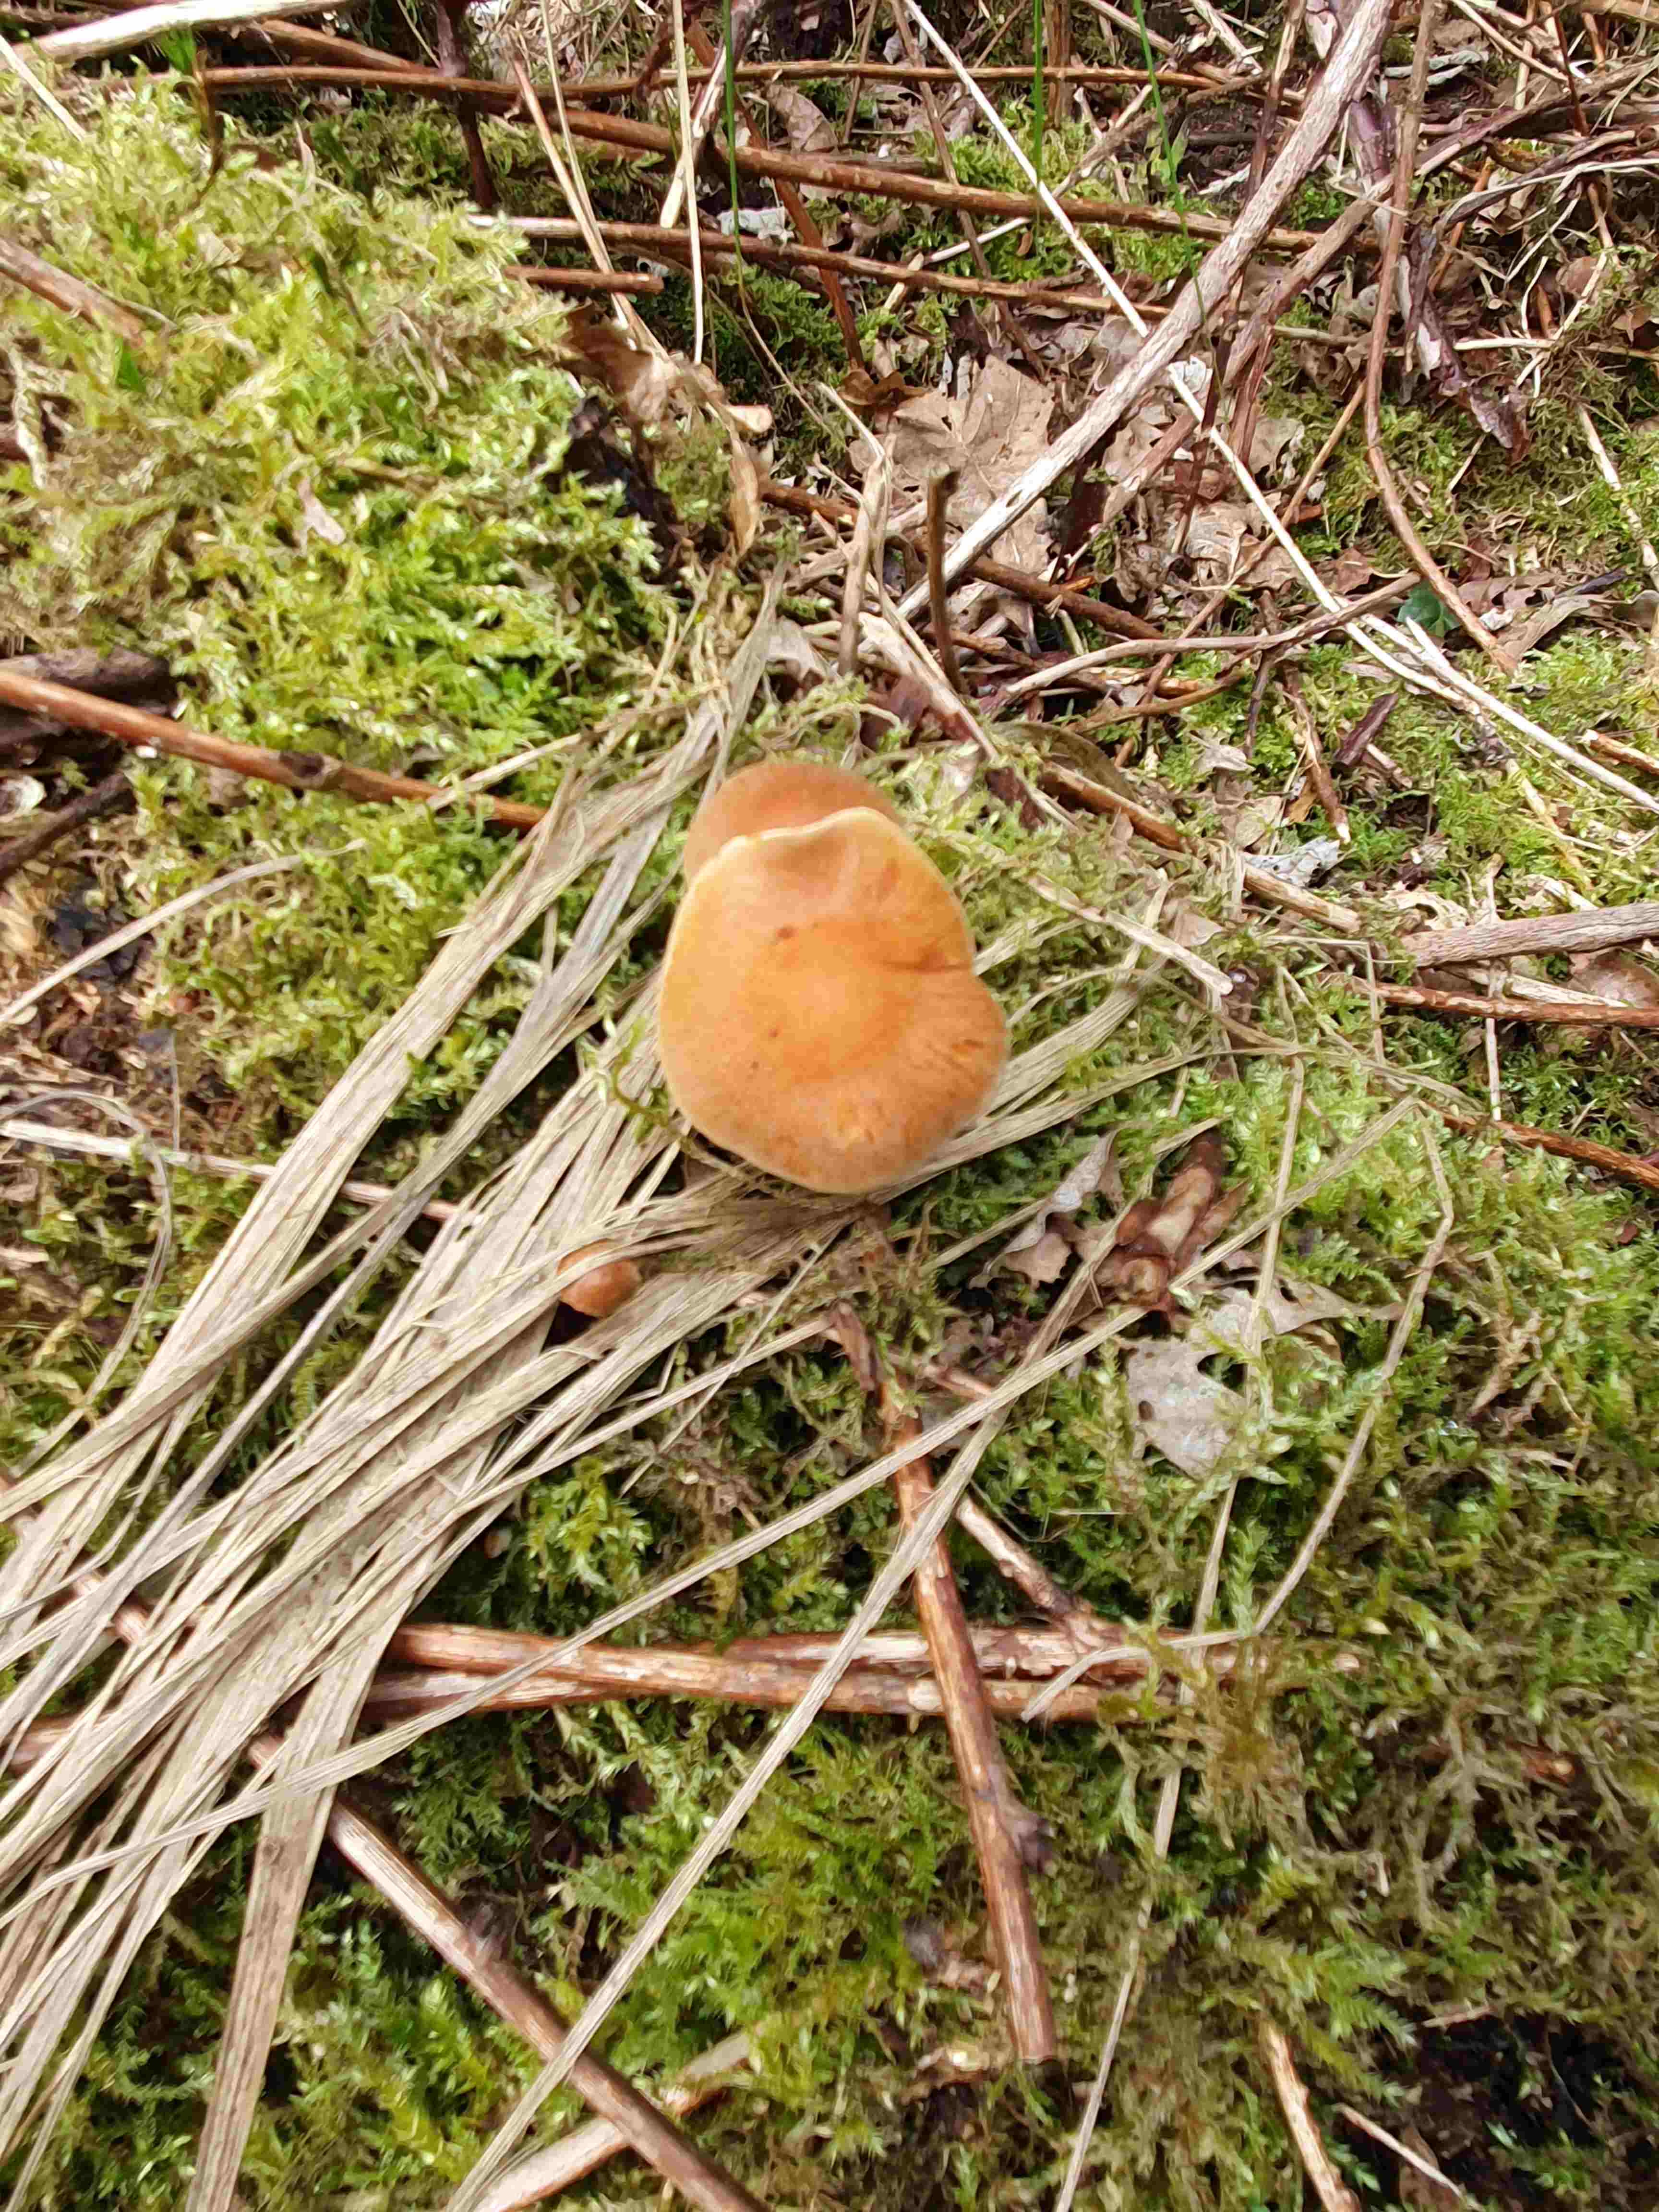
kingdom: Fungi
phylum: Basidiomycota
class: Agaricomycetes
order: Agaricales
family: Hymenogastraceae
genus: Gymnopilus
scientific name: Gymnopilus penetrans
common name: plettet flammehat
